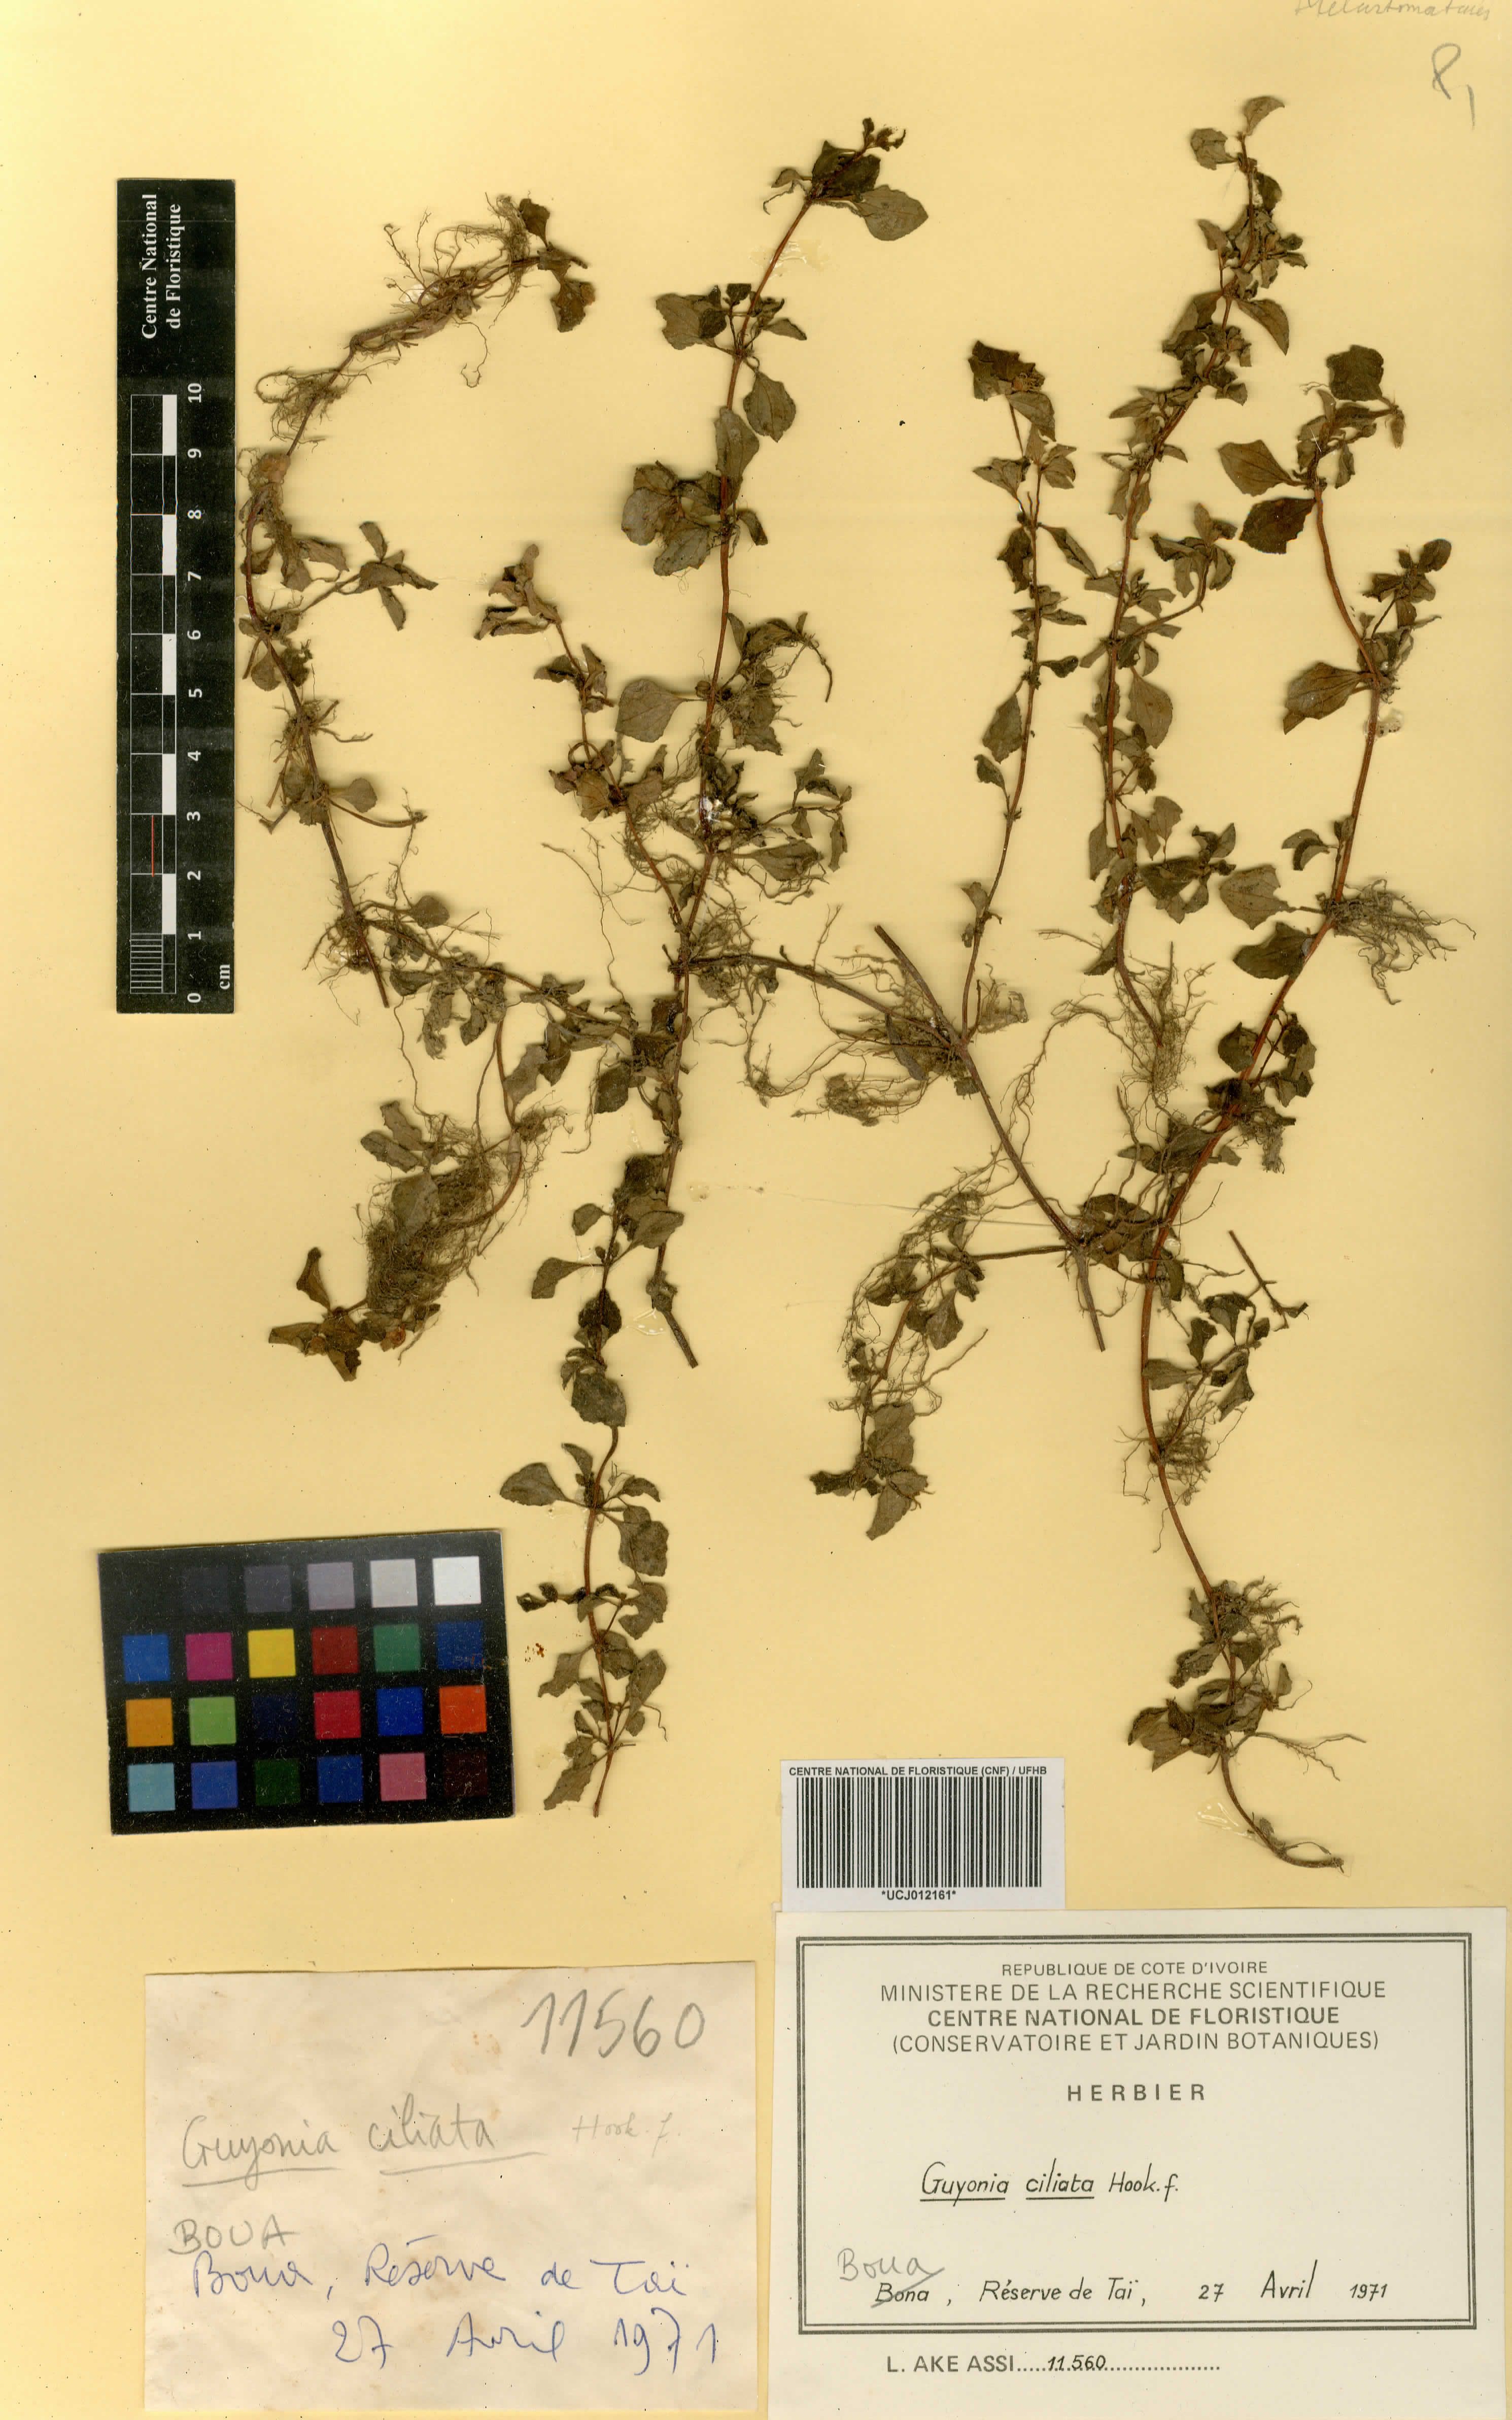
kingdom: Plantae
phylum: Tracheophyta
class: Magnoliopsida
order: Myrtales
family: Melastomataceae
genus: Guyonia
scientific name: Guyonia ciliata
